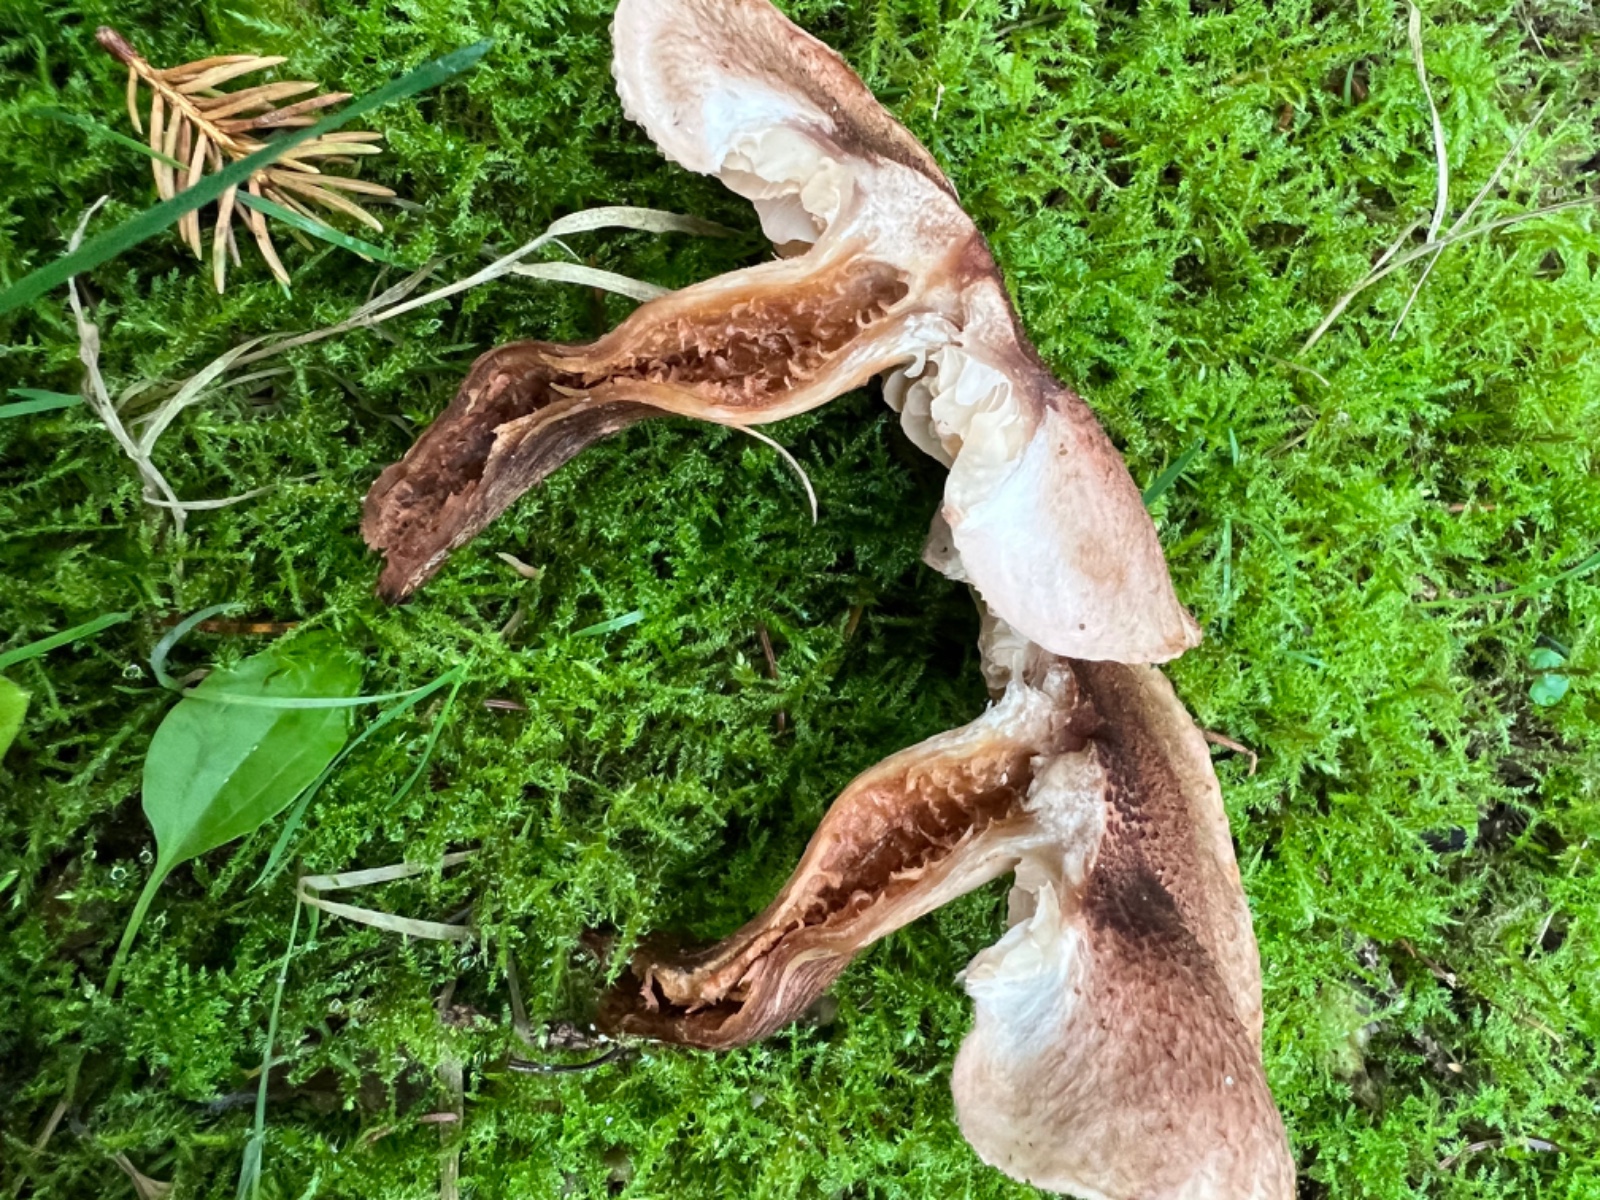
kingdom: Fungi
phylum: Basidiomycota
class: Agaricomycetes
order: Agaricales
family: Tricholomataceae
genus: Tricholoma
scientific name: Tricholoma vaccinum
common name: ko-ridderhat
